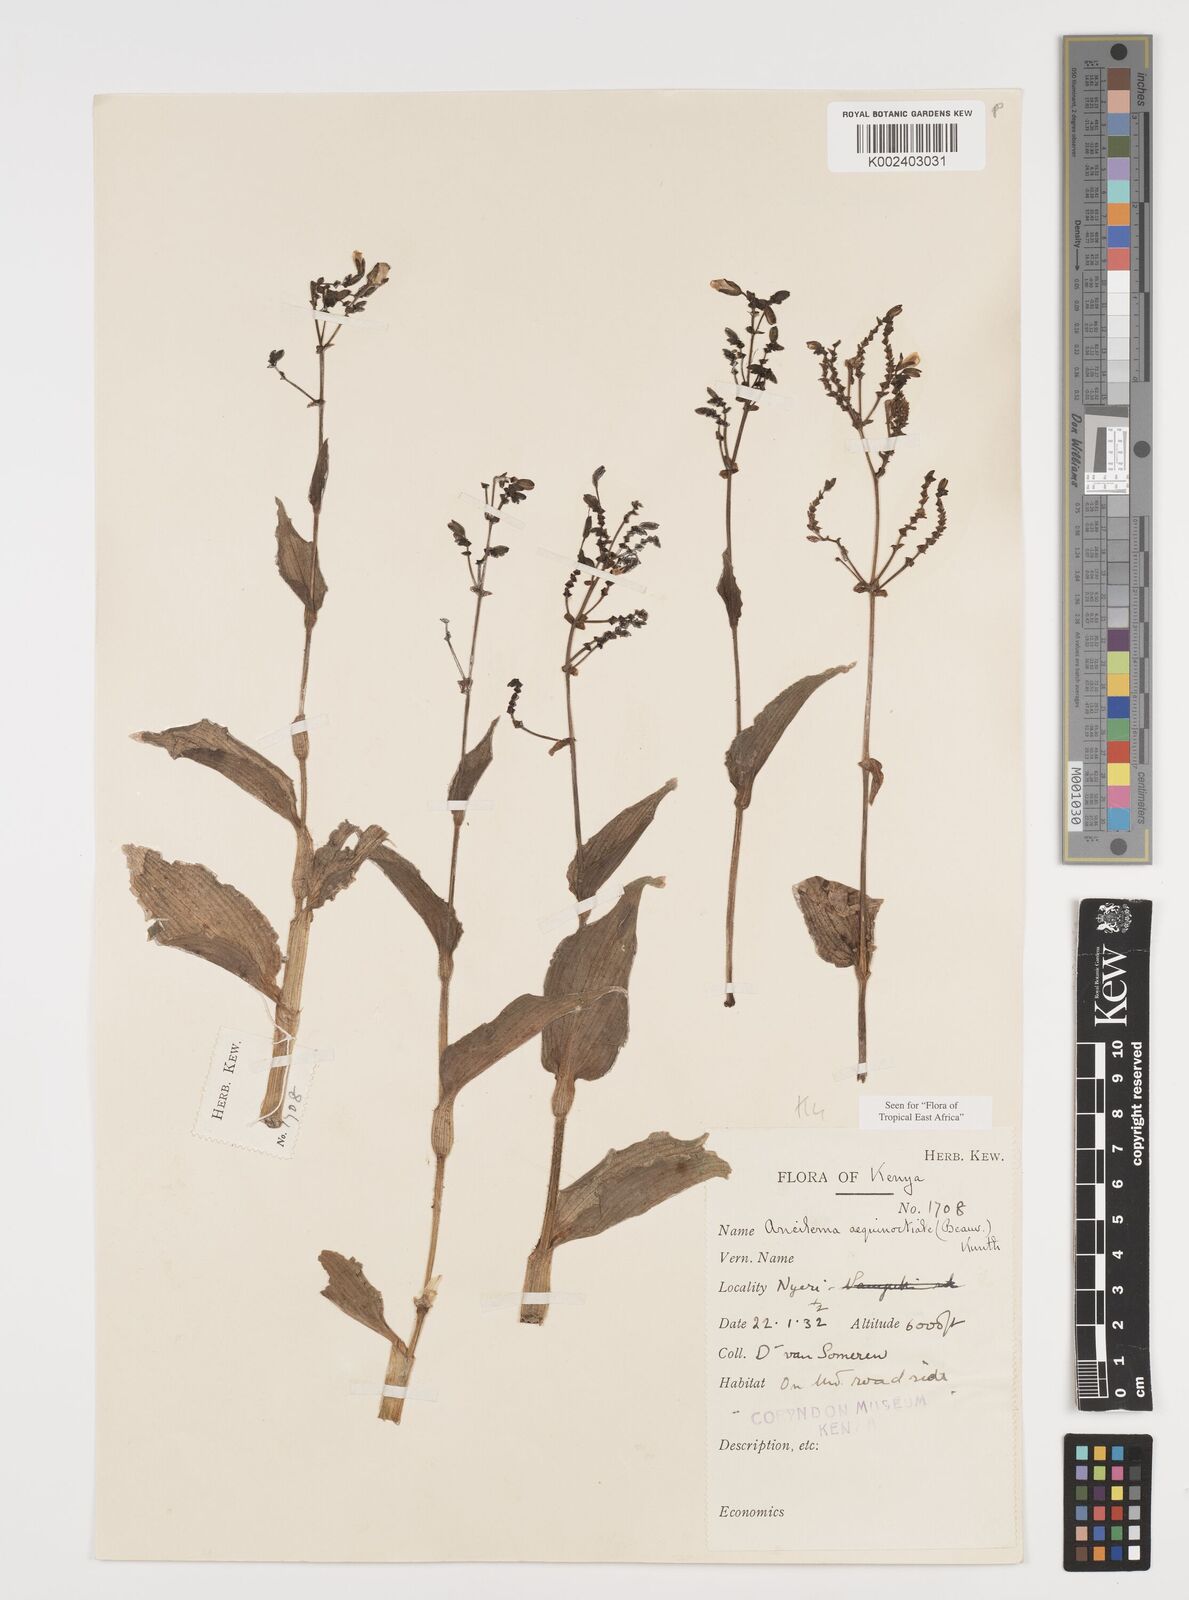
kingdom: Plantae
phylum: Tracheophyta
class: Liliopsida
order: Commelinales
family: Commelinaceae
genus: Aneilema
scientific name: Aneilema aequinoctiale
